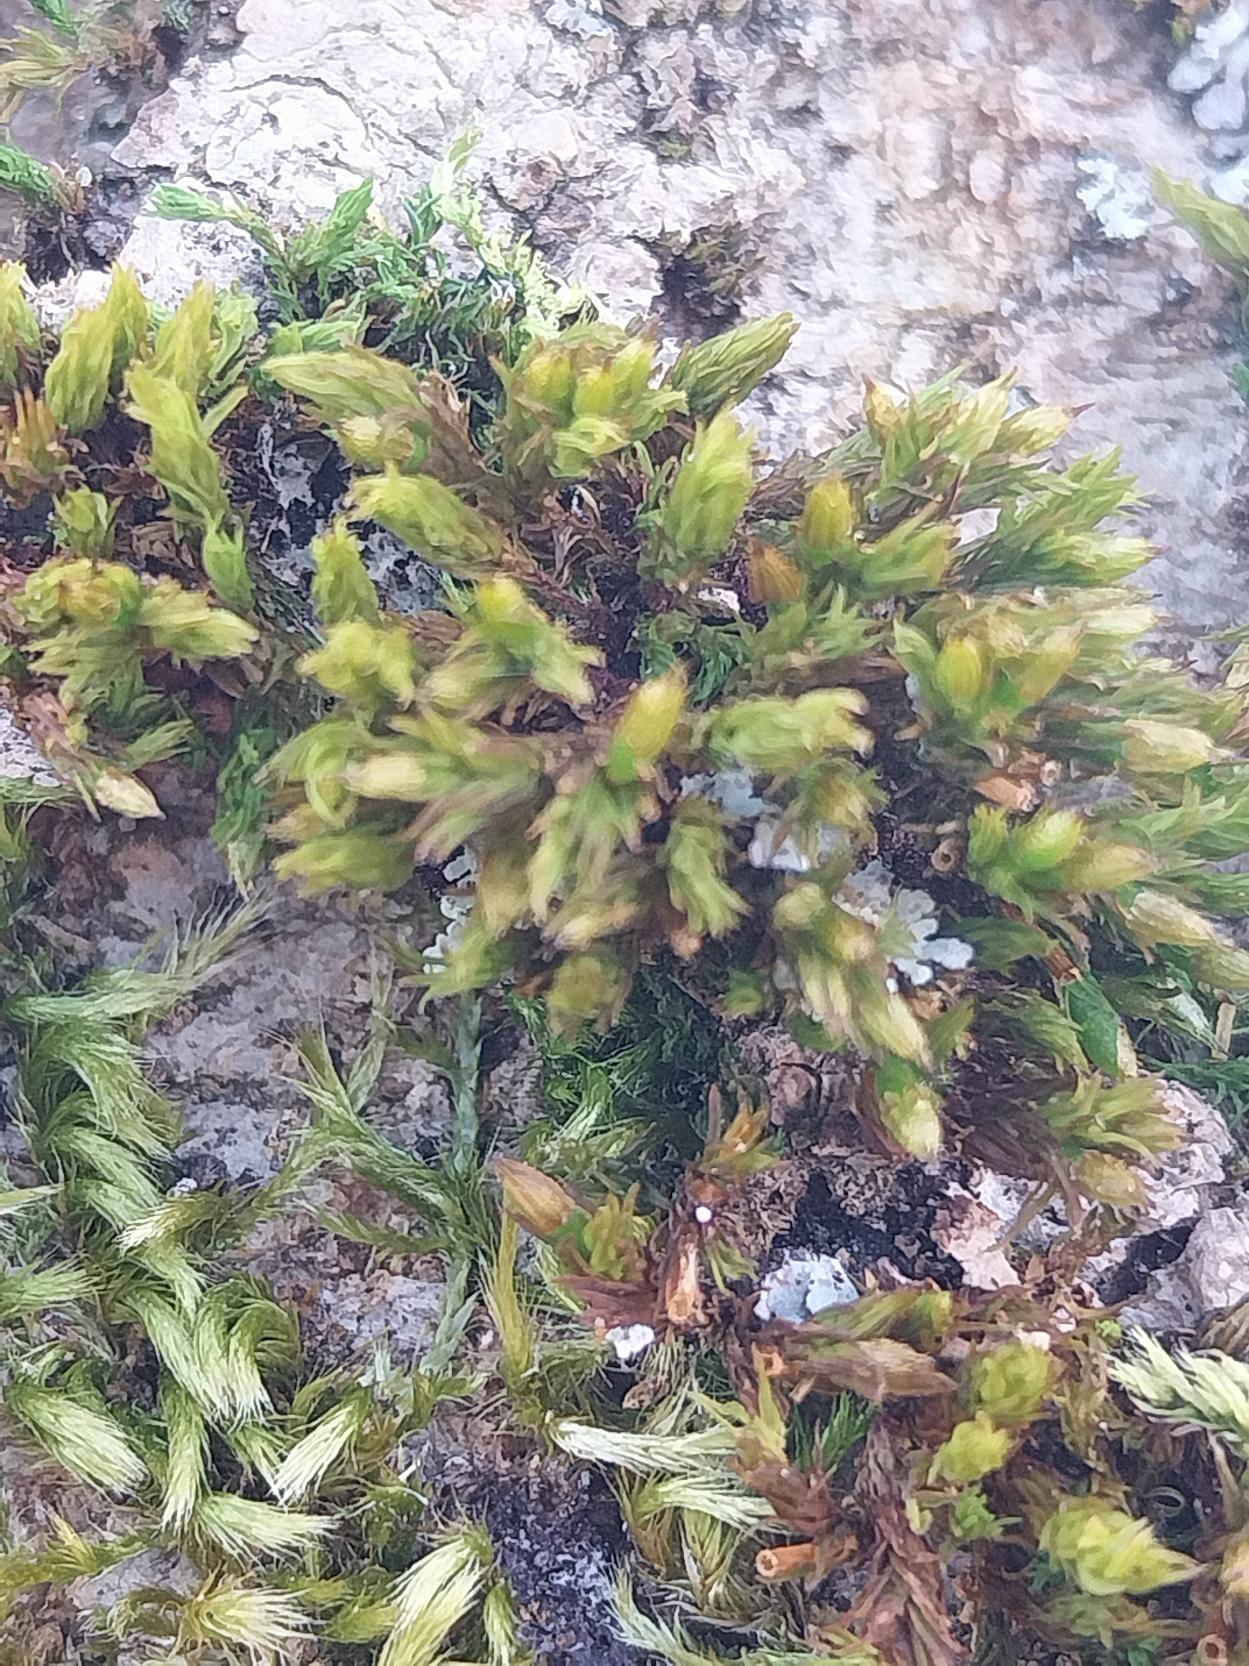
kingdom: Plantae
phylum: Bryophyta
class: Bryopsida
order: Orthotrichales
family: Orthotrichaceae
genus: Lewinskya
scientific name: Lewinskya affinis
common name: Almindelig furehætte
